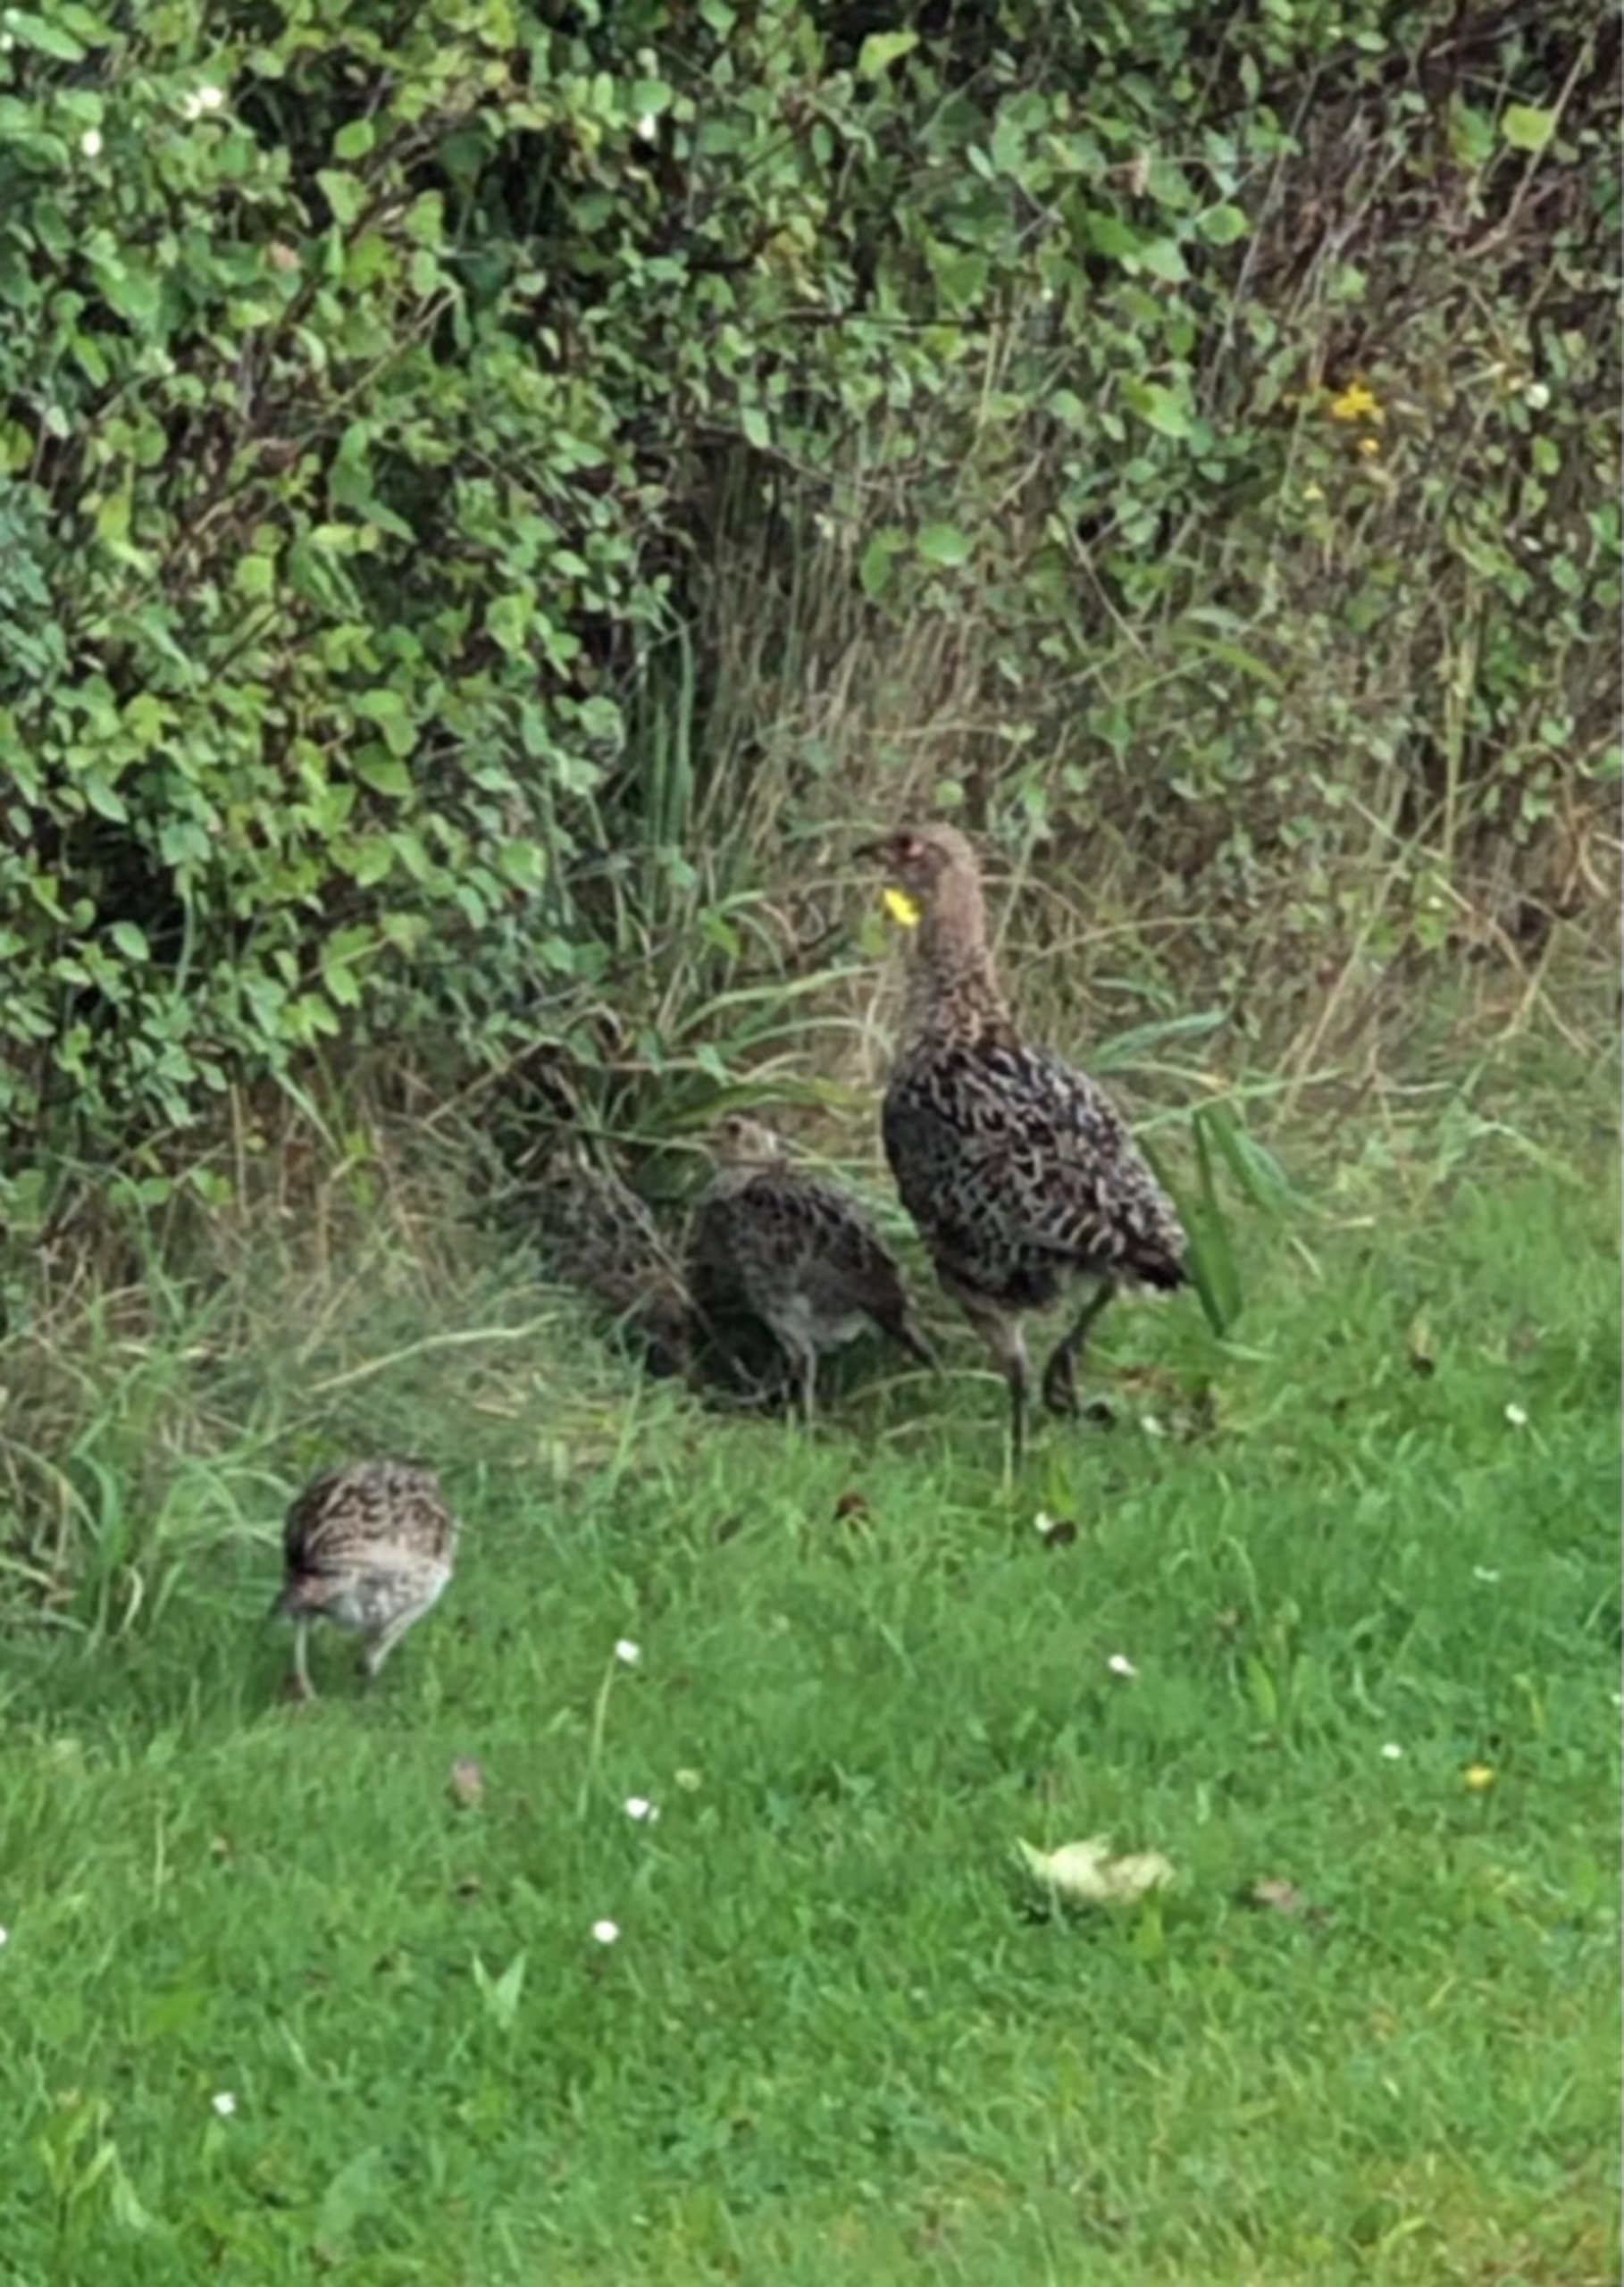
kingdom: Animalia
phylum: Chordata
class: Aves
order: Galliformes
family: Phasianidae
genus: Phasianus
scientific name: Phasianus colchicus
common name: Fasan
